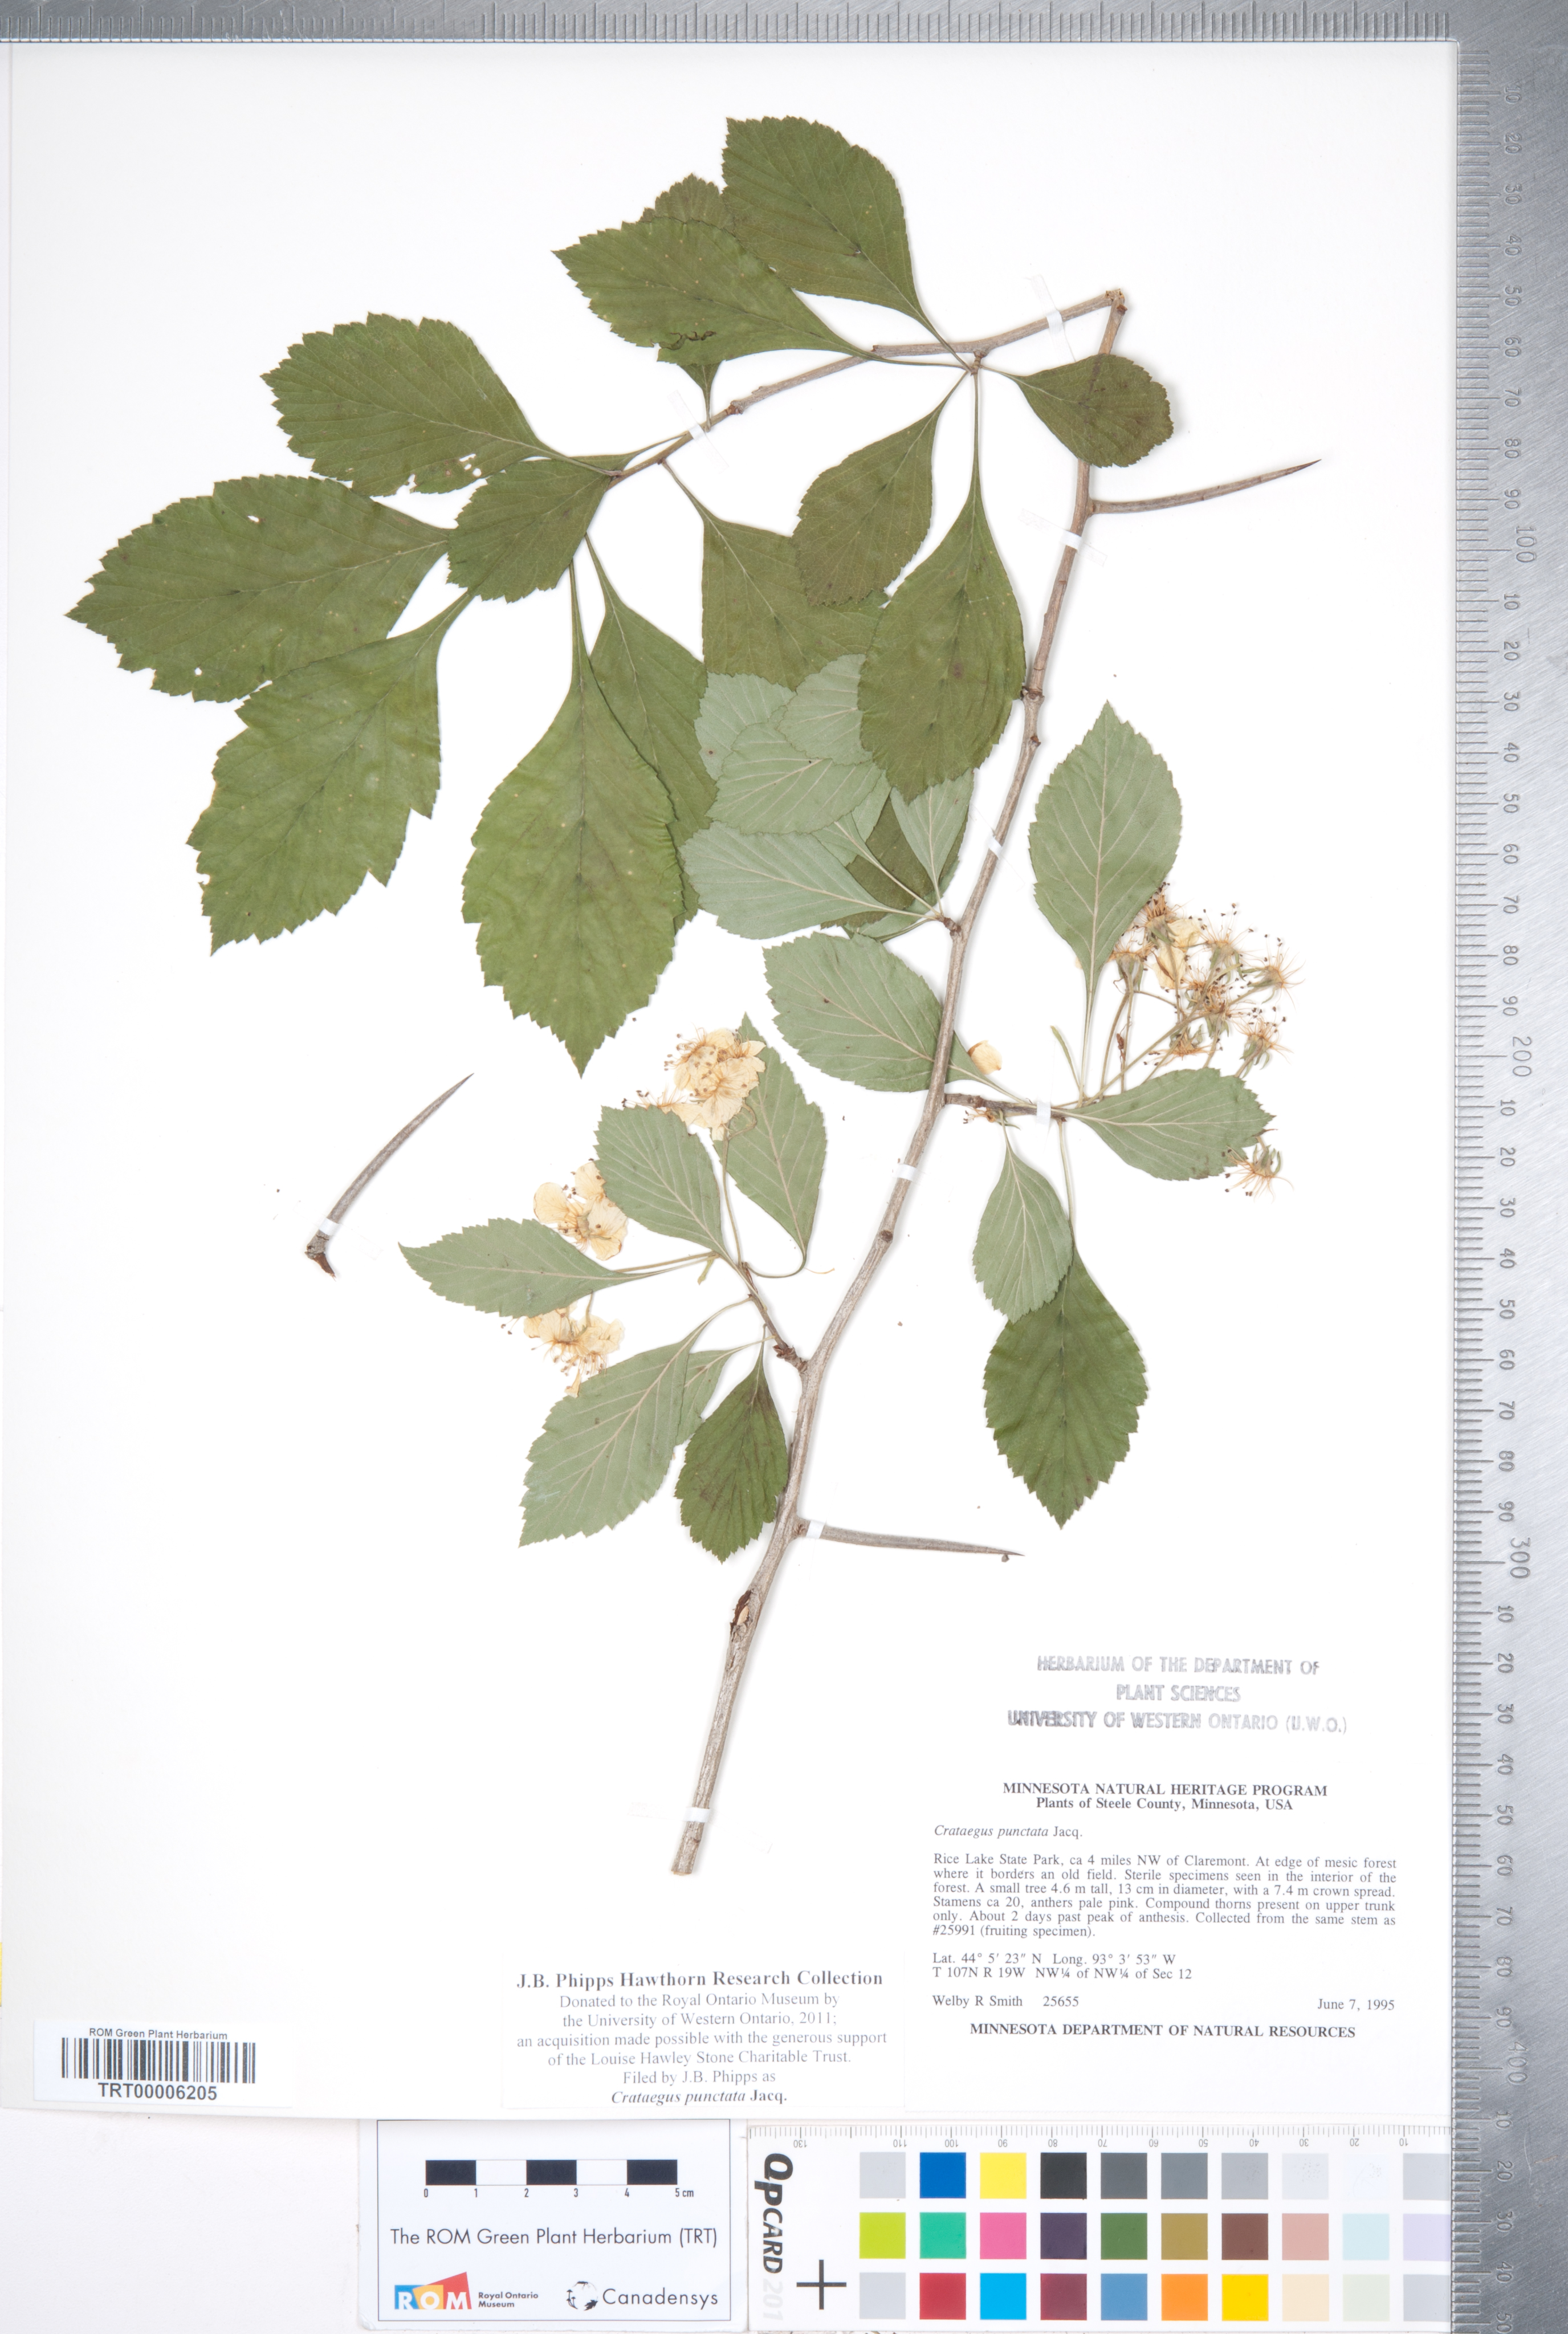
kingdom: Plantae
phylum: Tracheophyta
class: Magnoliopsida
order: Rosales
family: Rosaceae
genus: Crataegus
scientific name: Crataegus punctata
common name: Dotted hawthorn
